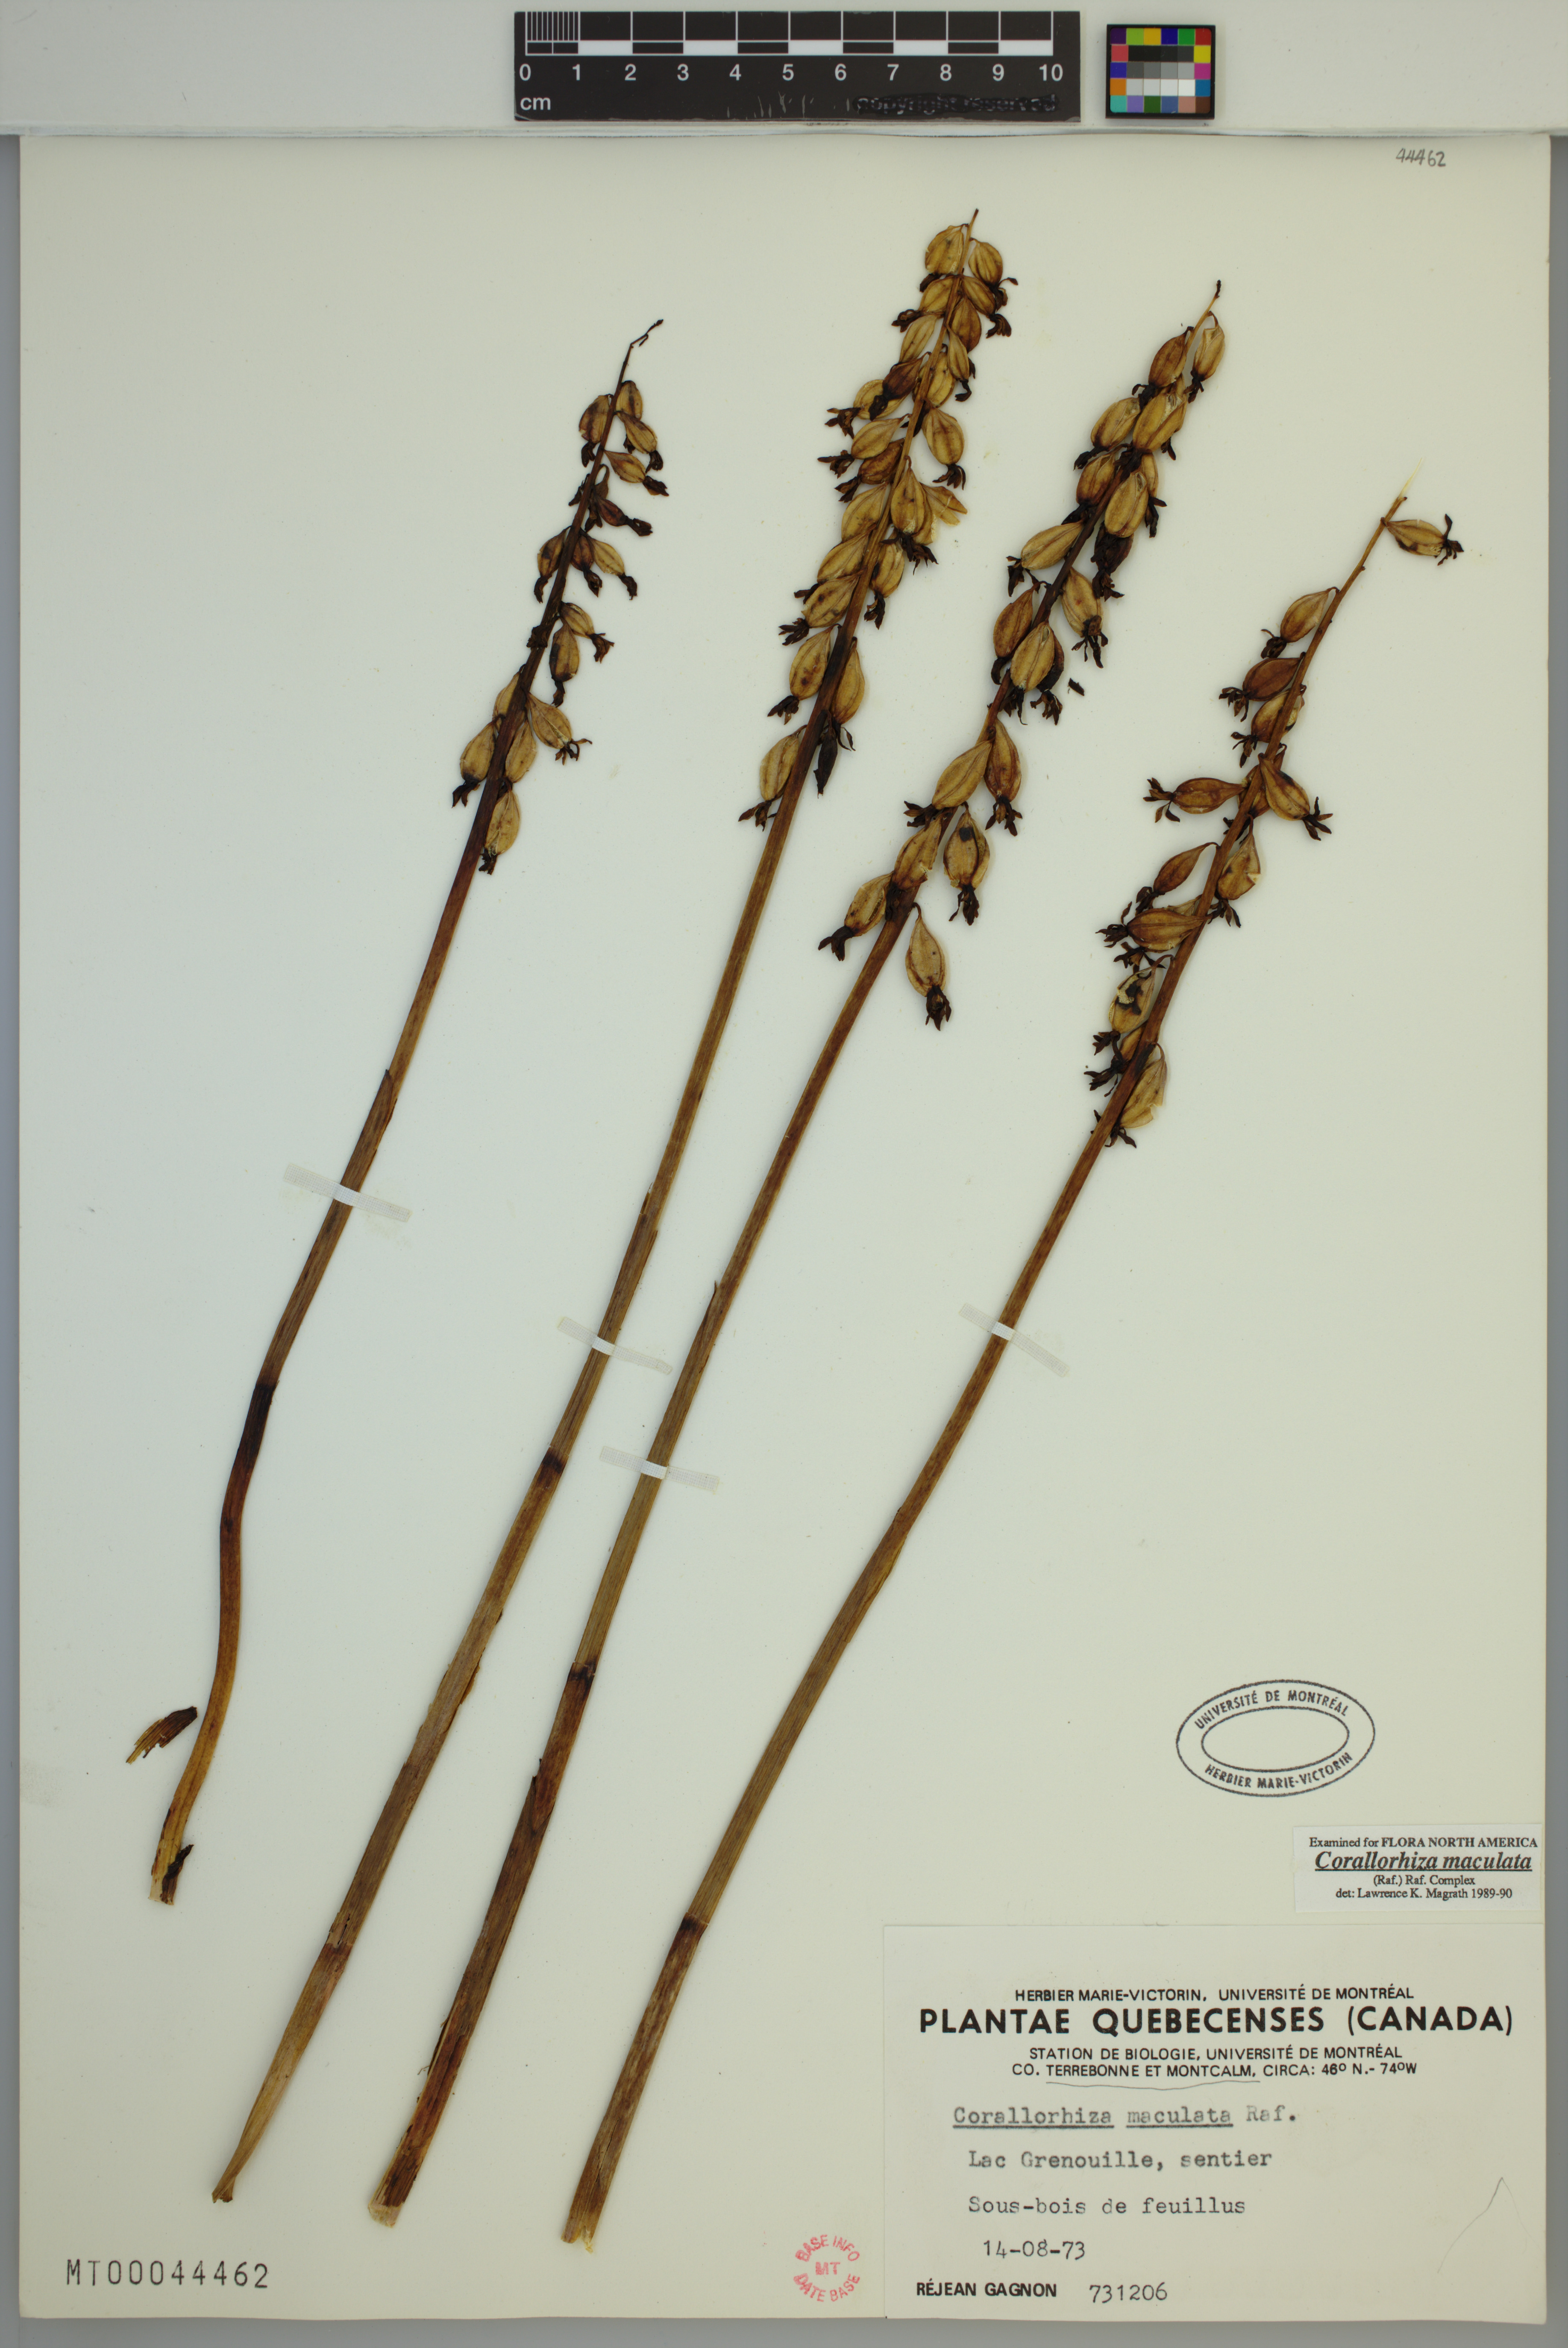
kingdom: Plantae
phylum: Tracheophyta
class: Liliopsida
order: Asparagales
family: Orchidaceae
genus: Corallorhiza
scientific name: Corallorhiza maculata
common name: Spotted coralroot
